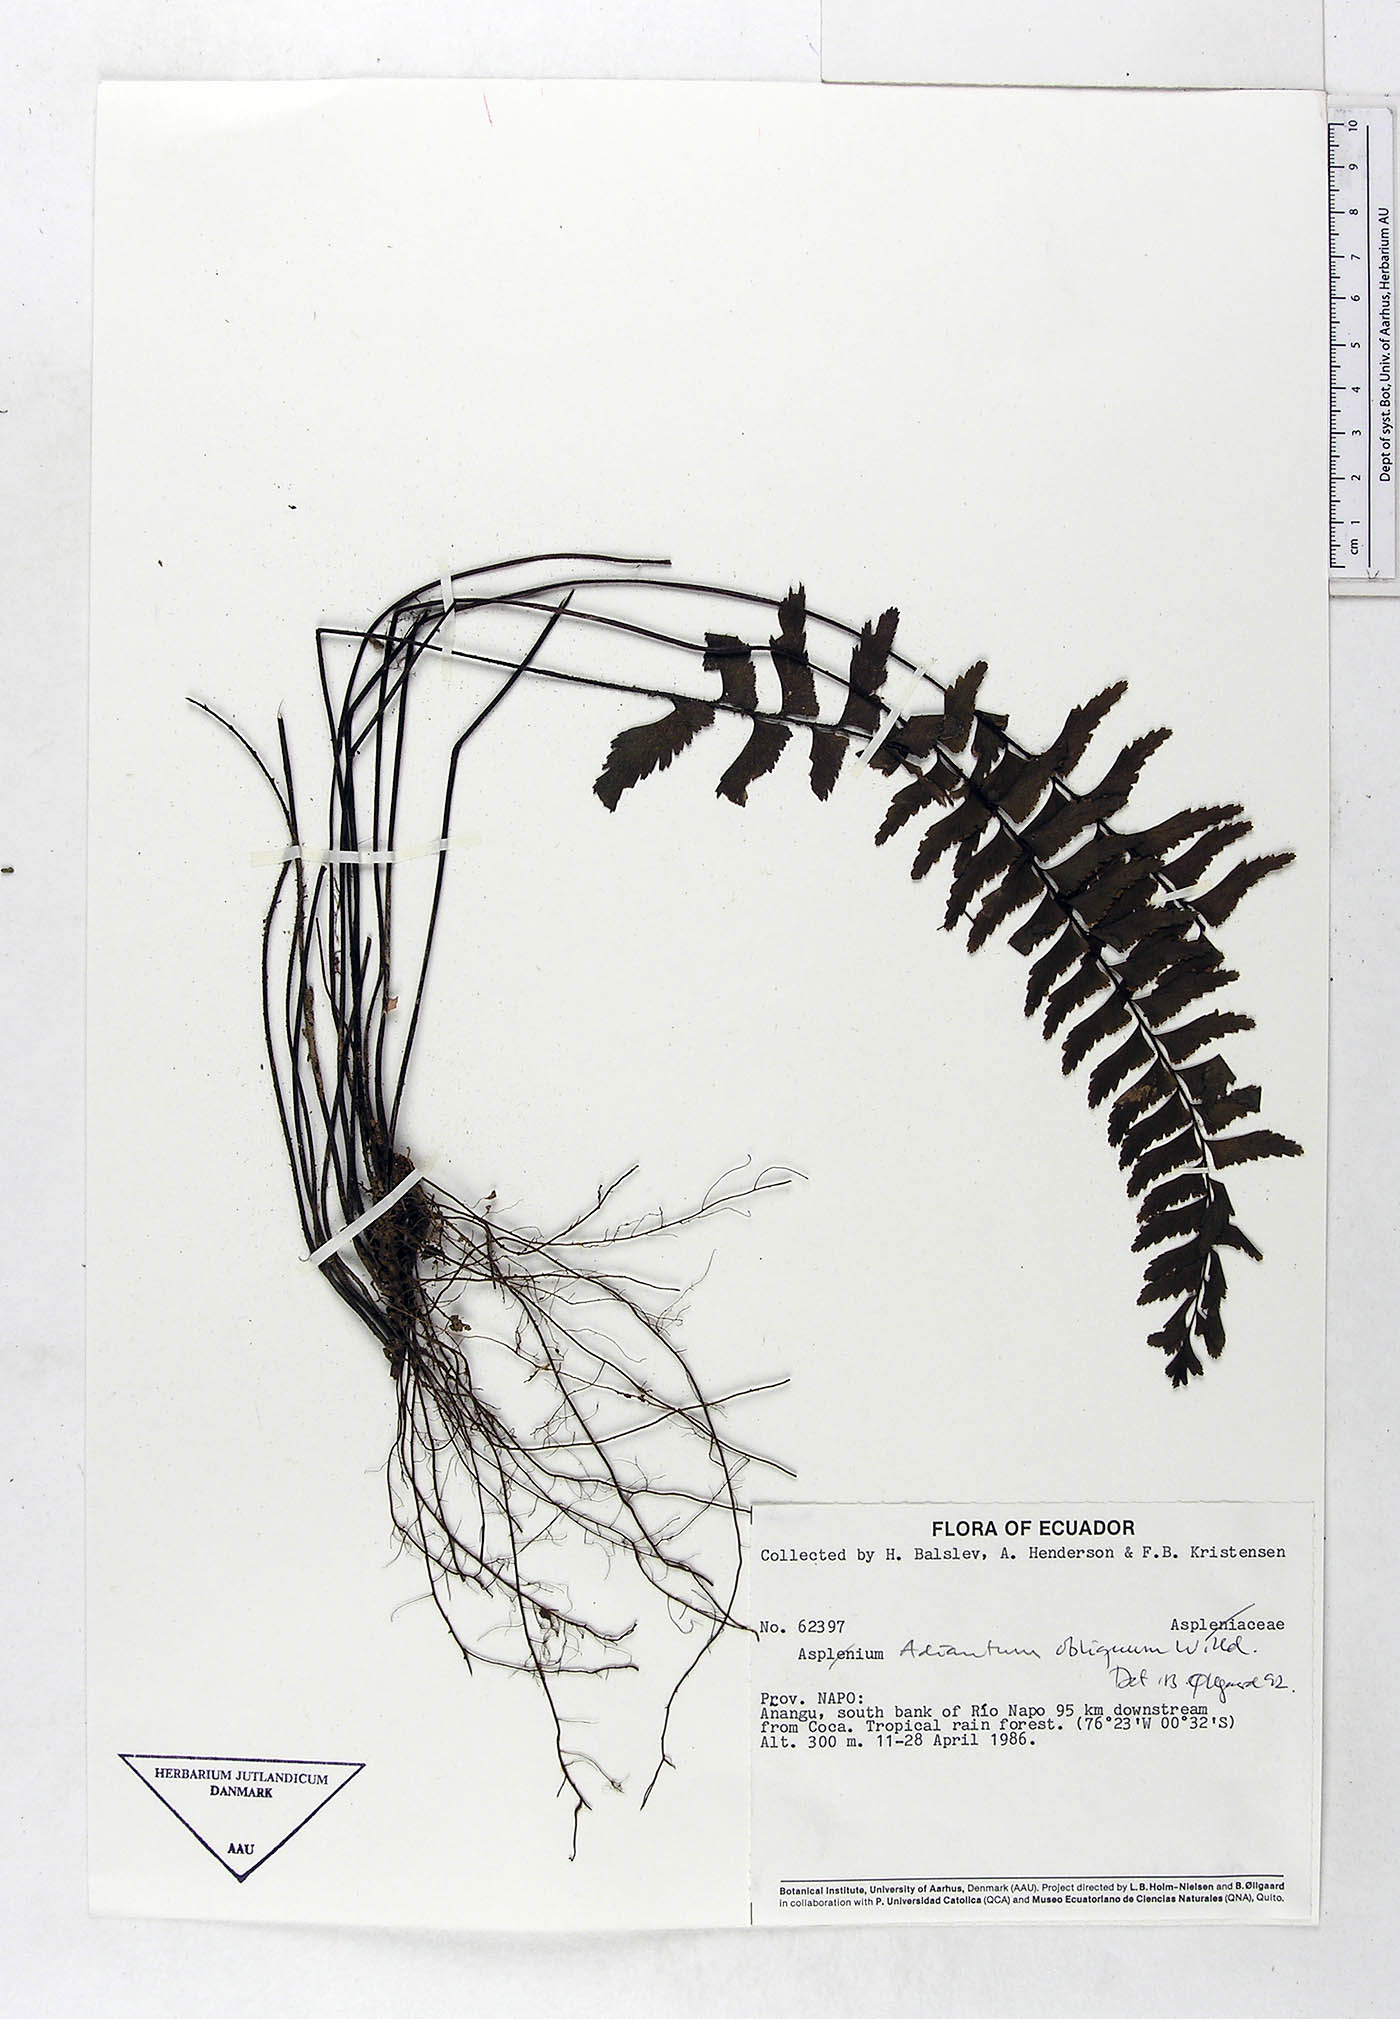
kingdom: Plantae
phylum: Tracheophyta
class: Polypodiopsida
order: Polypodiales
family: Pteridaceae
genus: Adiantum
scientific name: Adiantum obliquum
